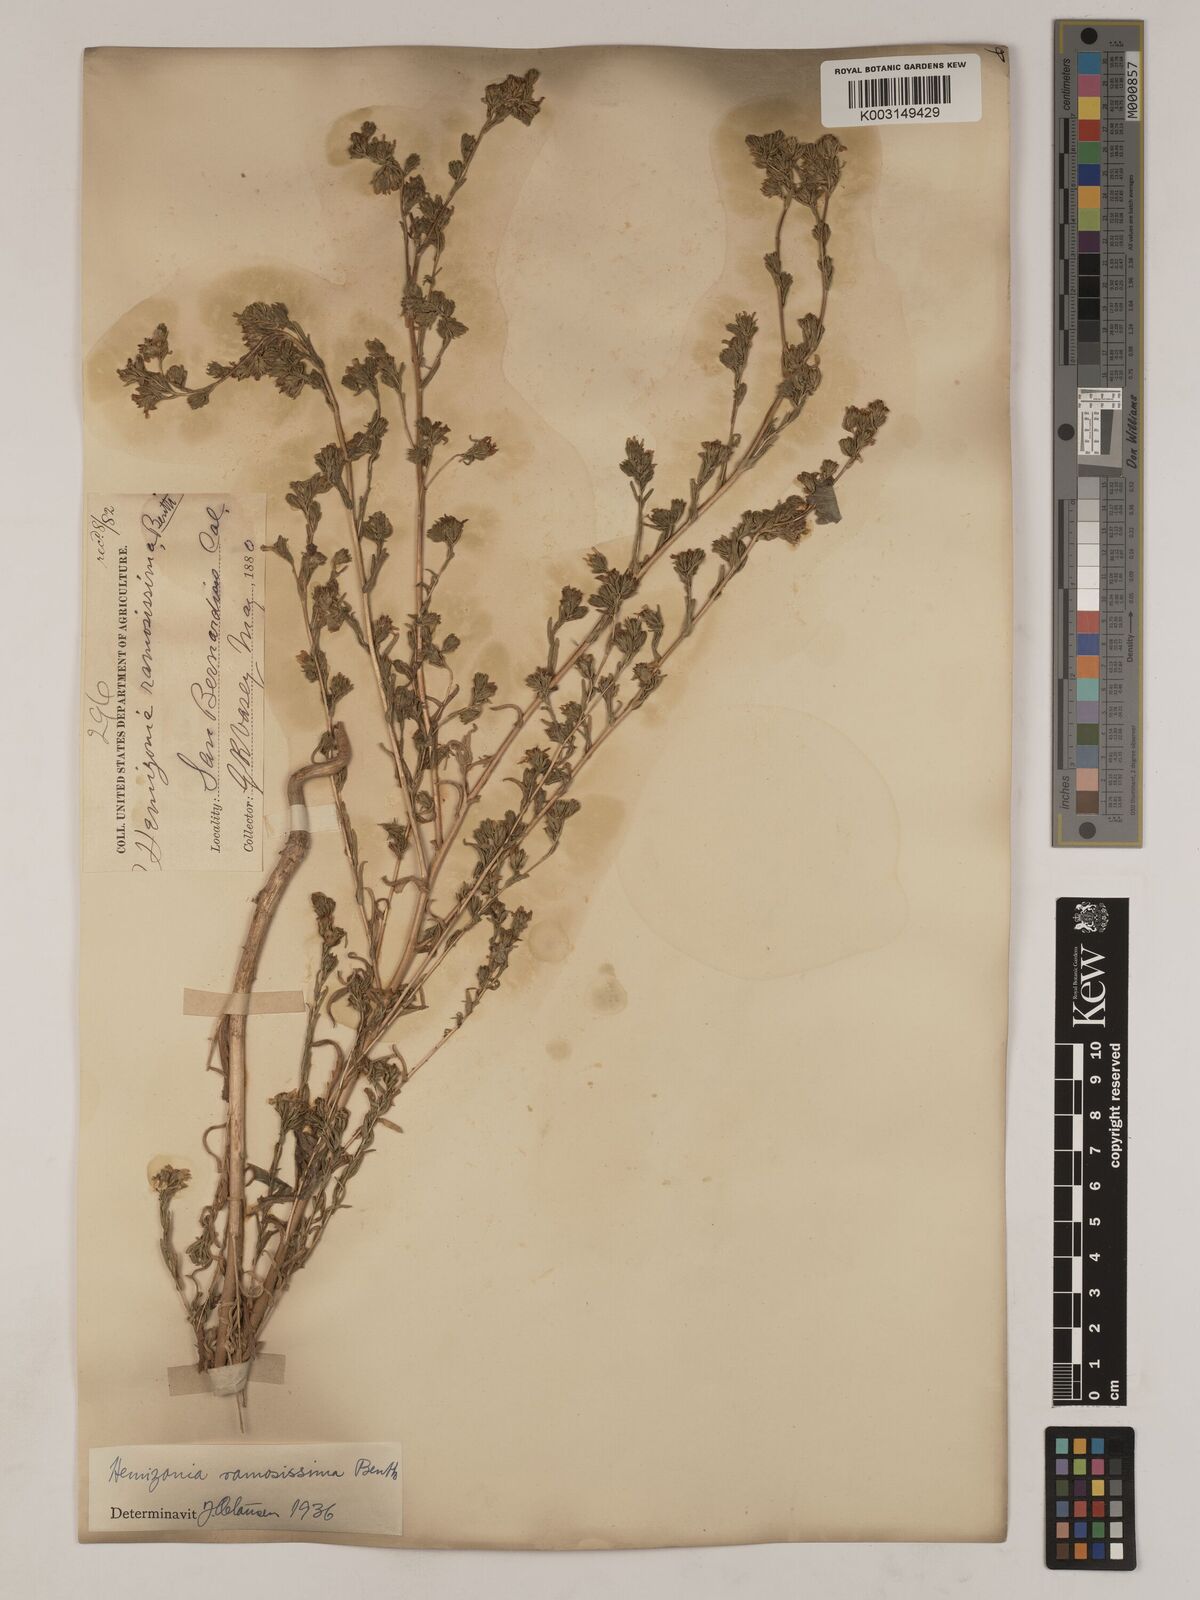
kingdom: Plantae
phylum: Tracheophyta
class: Magnoliopsida
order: Asterales
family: Asteraceae
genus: Deinandra
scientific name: Deinandra fasciculata
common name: Clustered tarweed
